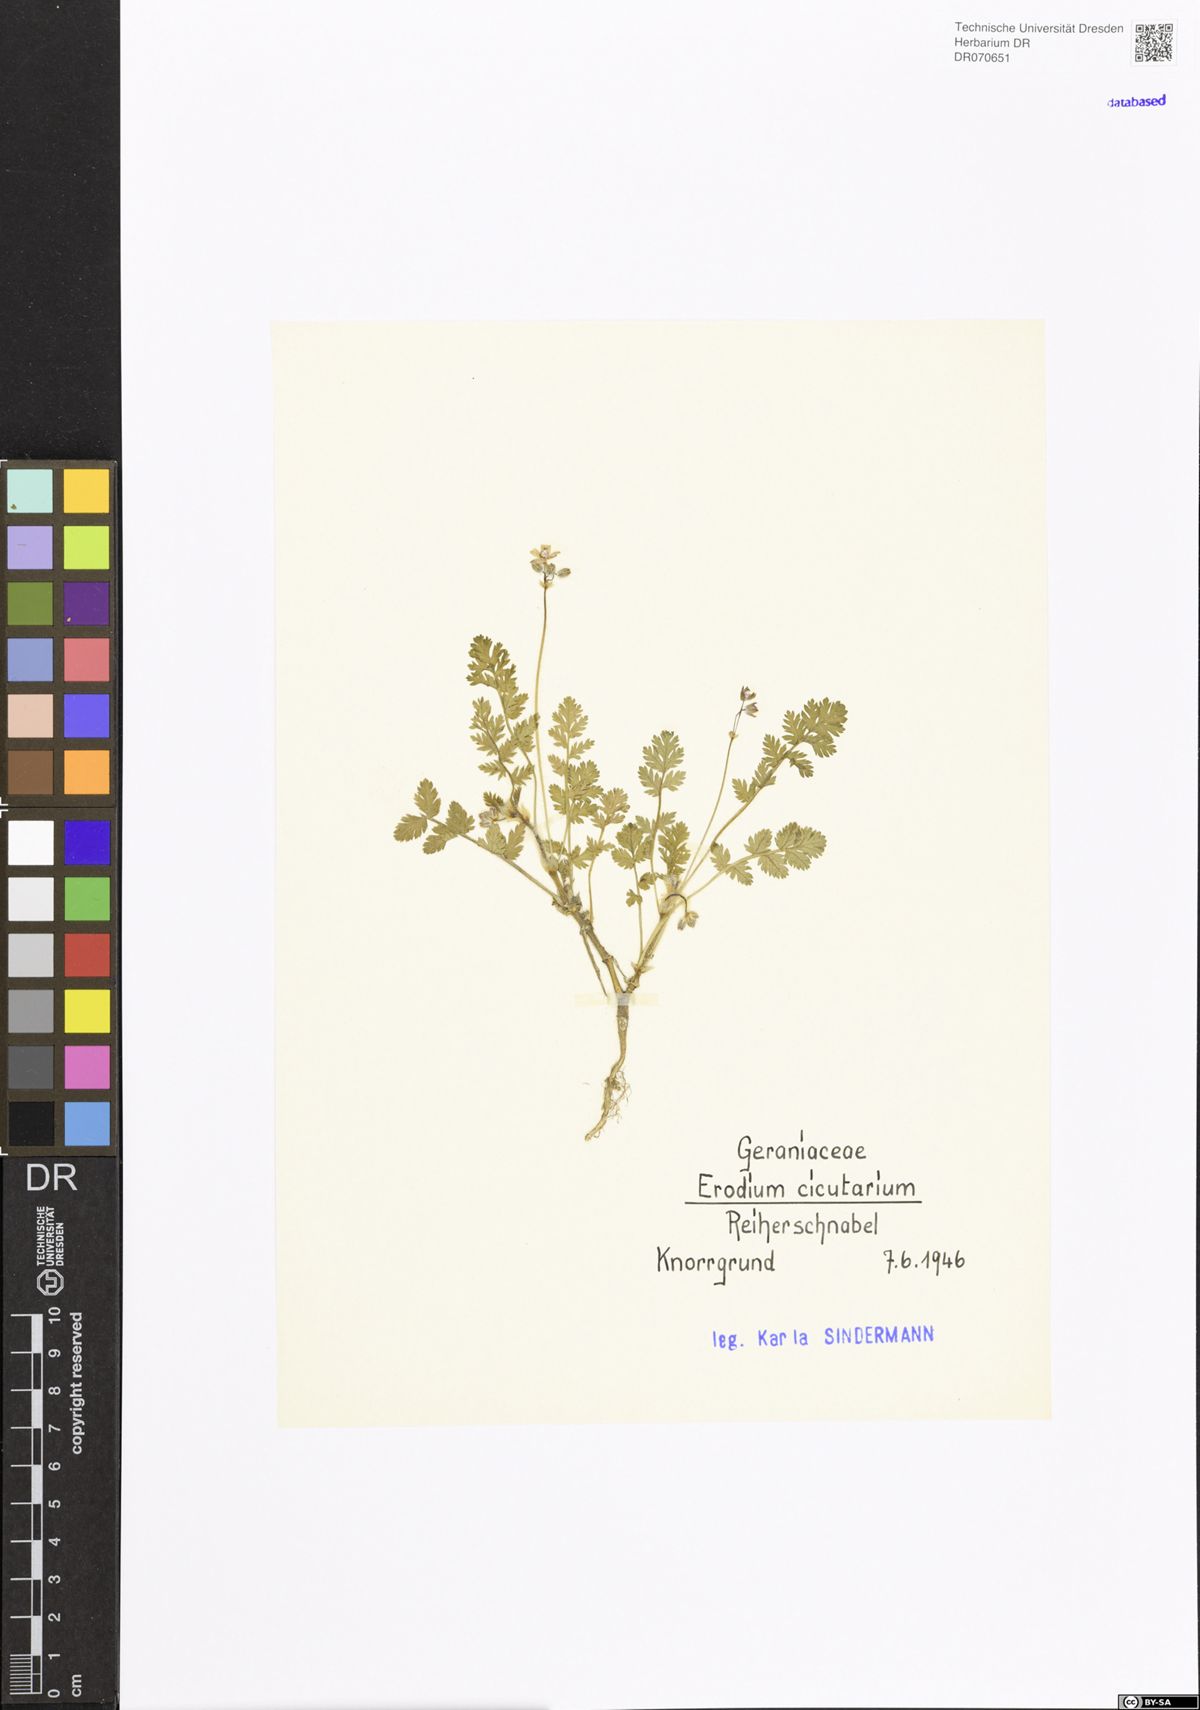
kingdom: Plantae
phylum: Tracheophyta
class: Magnoliopsida
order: Geraniales
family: Geraniaceae
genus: Erodium
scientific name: Erodium cicutarium
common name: Common stork's-bill
